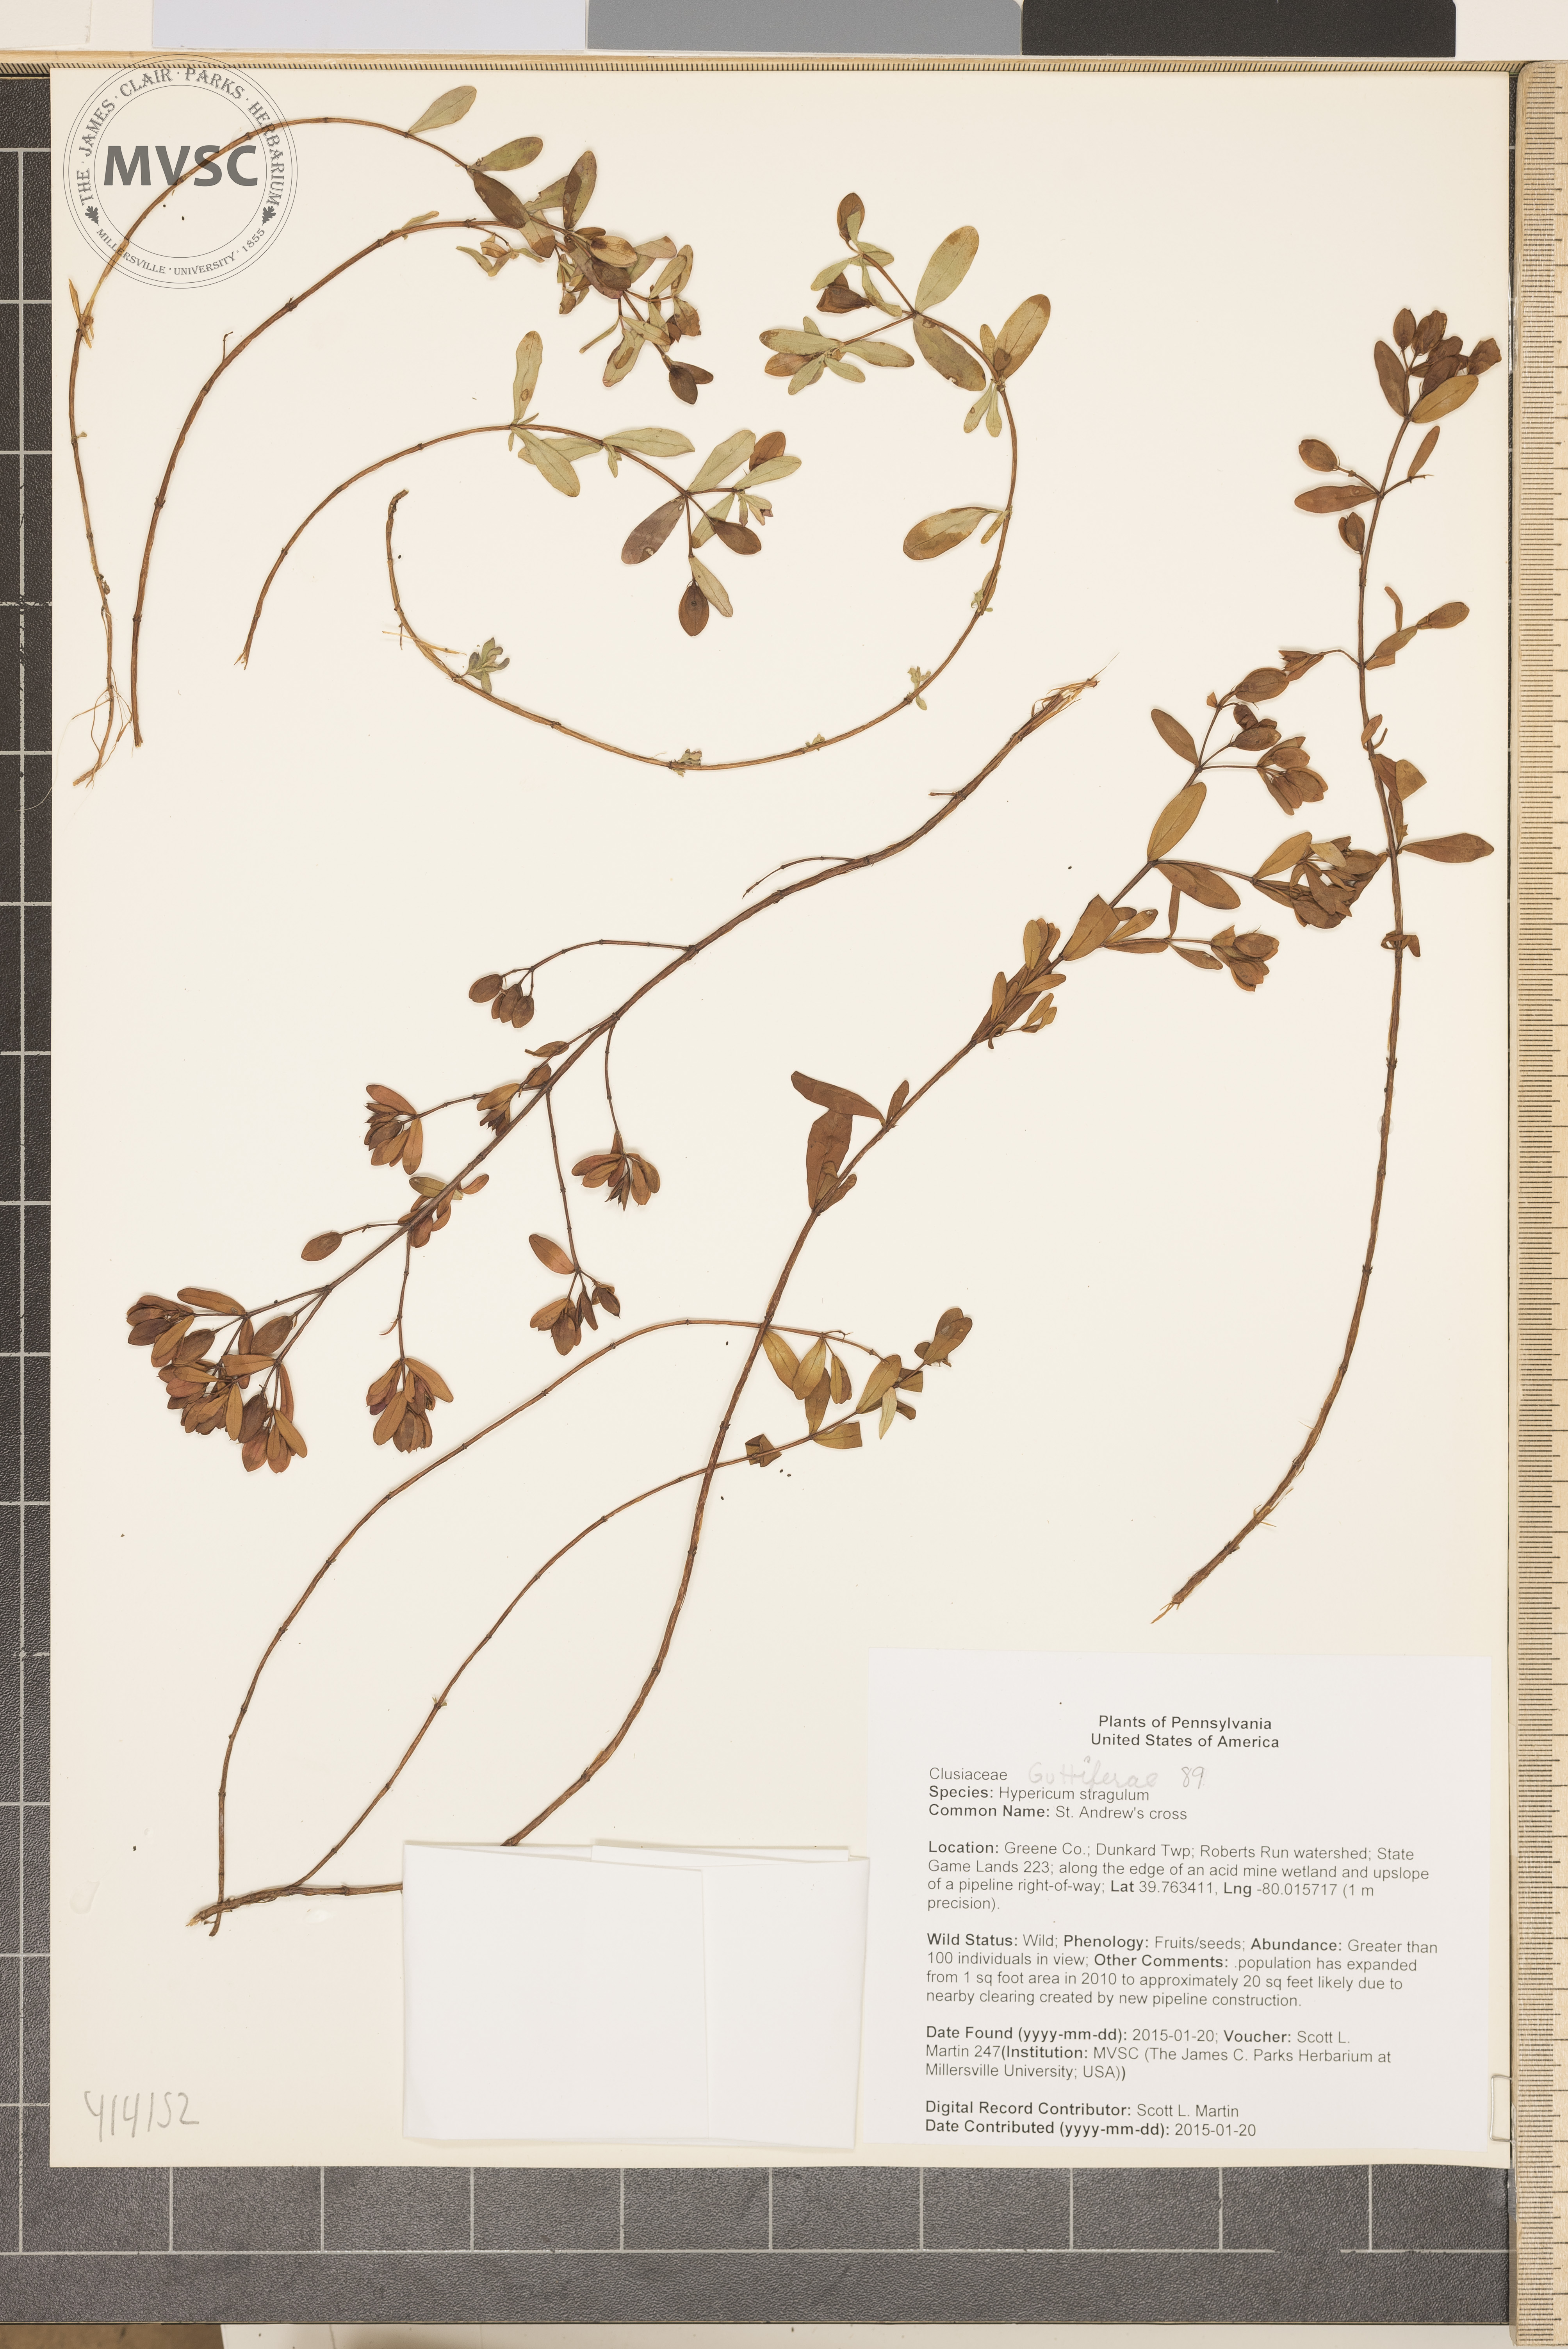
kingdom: Plantae
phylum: Tracheophyta
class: Magnoliopsida
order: Malpighiales
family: Hypericaceae
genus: Hypericum
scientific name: Hypericum hypericoides
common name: St. Andrew's cross
